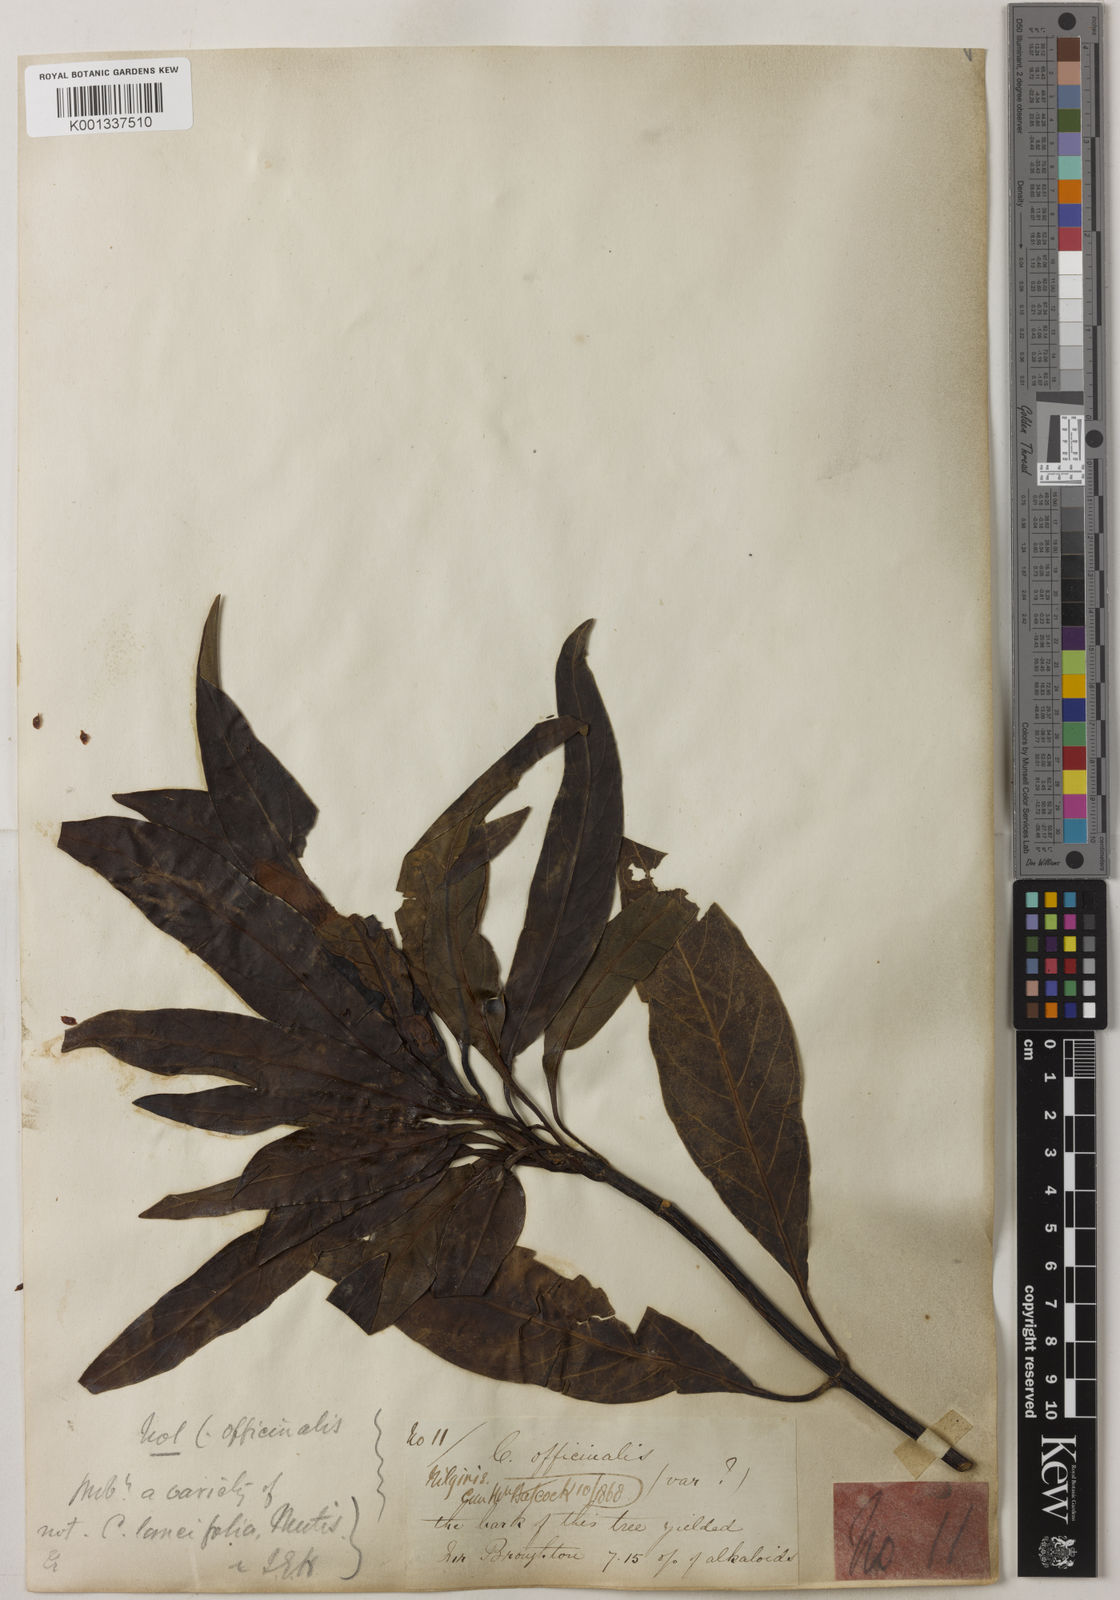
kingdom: Plantae
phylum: Tracheophyta
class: Magnoliopsida
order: Gentianales
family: Rubiaceae
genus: Cinchona
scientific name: Cinchona officinalis
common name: Lojabark
